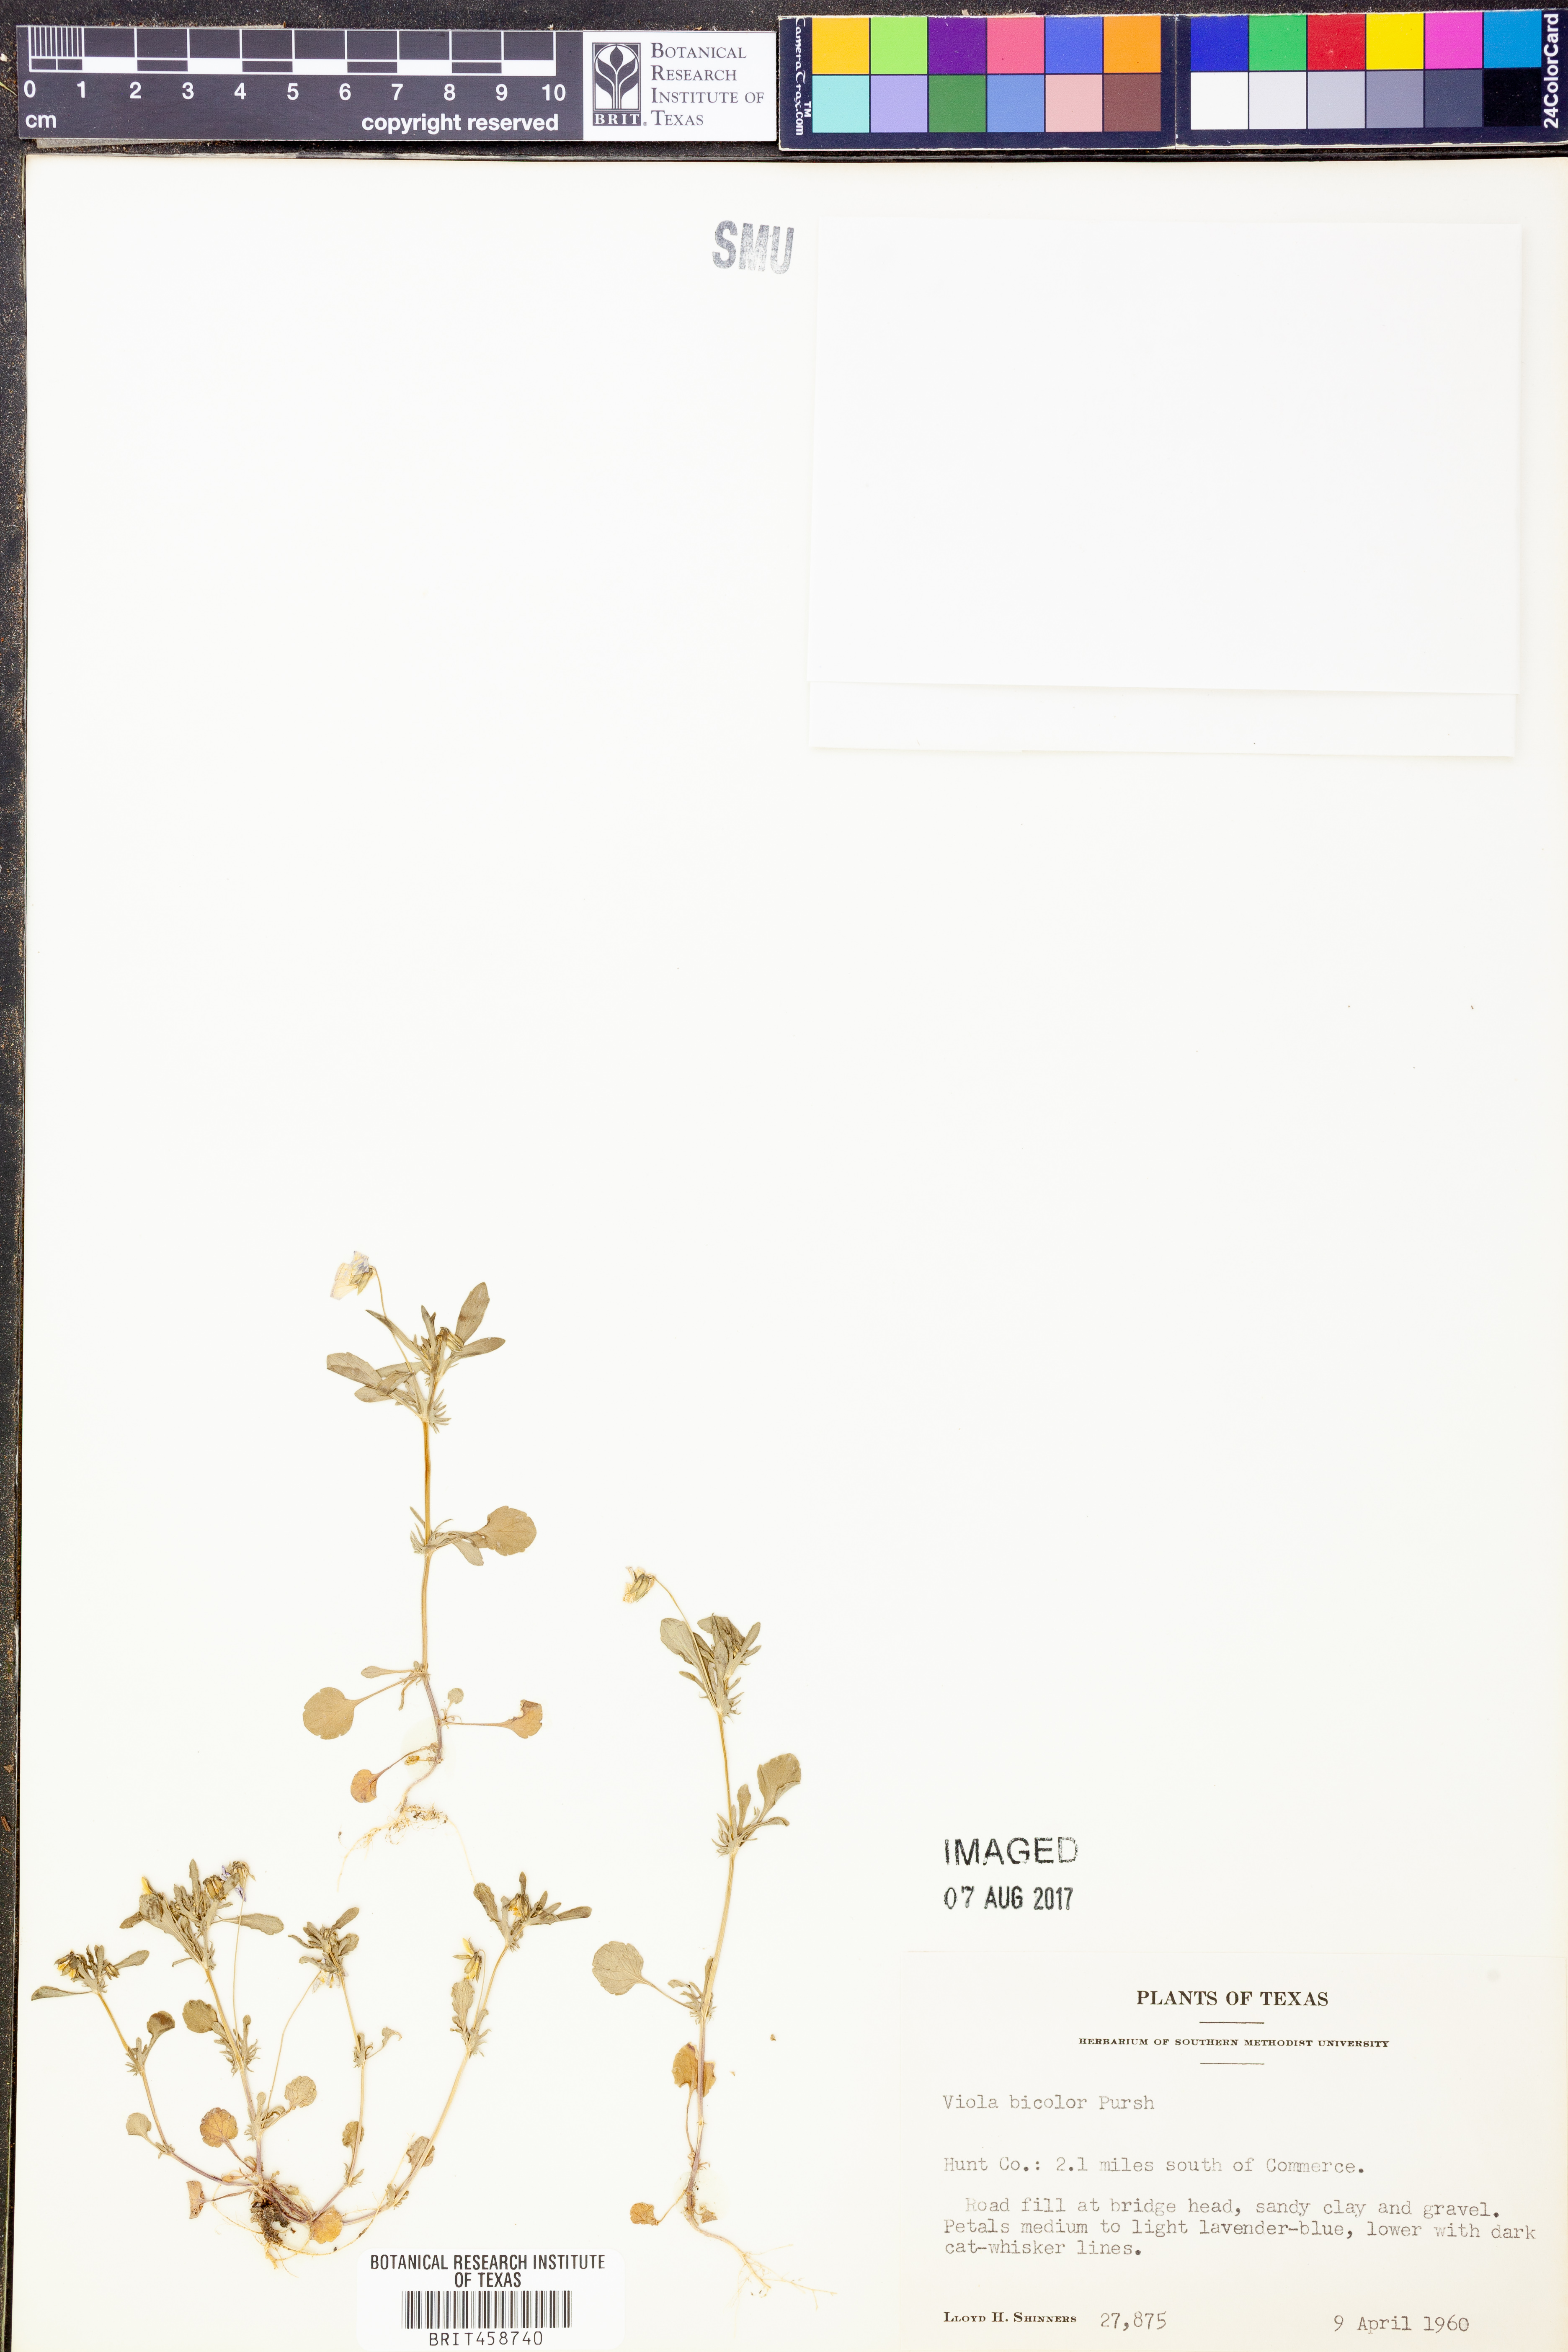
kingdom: Plantae
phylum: Tracheophyta
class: Magnoliopsida
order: Malpighiales
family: Violaceae
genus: Viola
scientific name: Viola rafinesquei
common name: American field pansy
